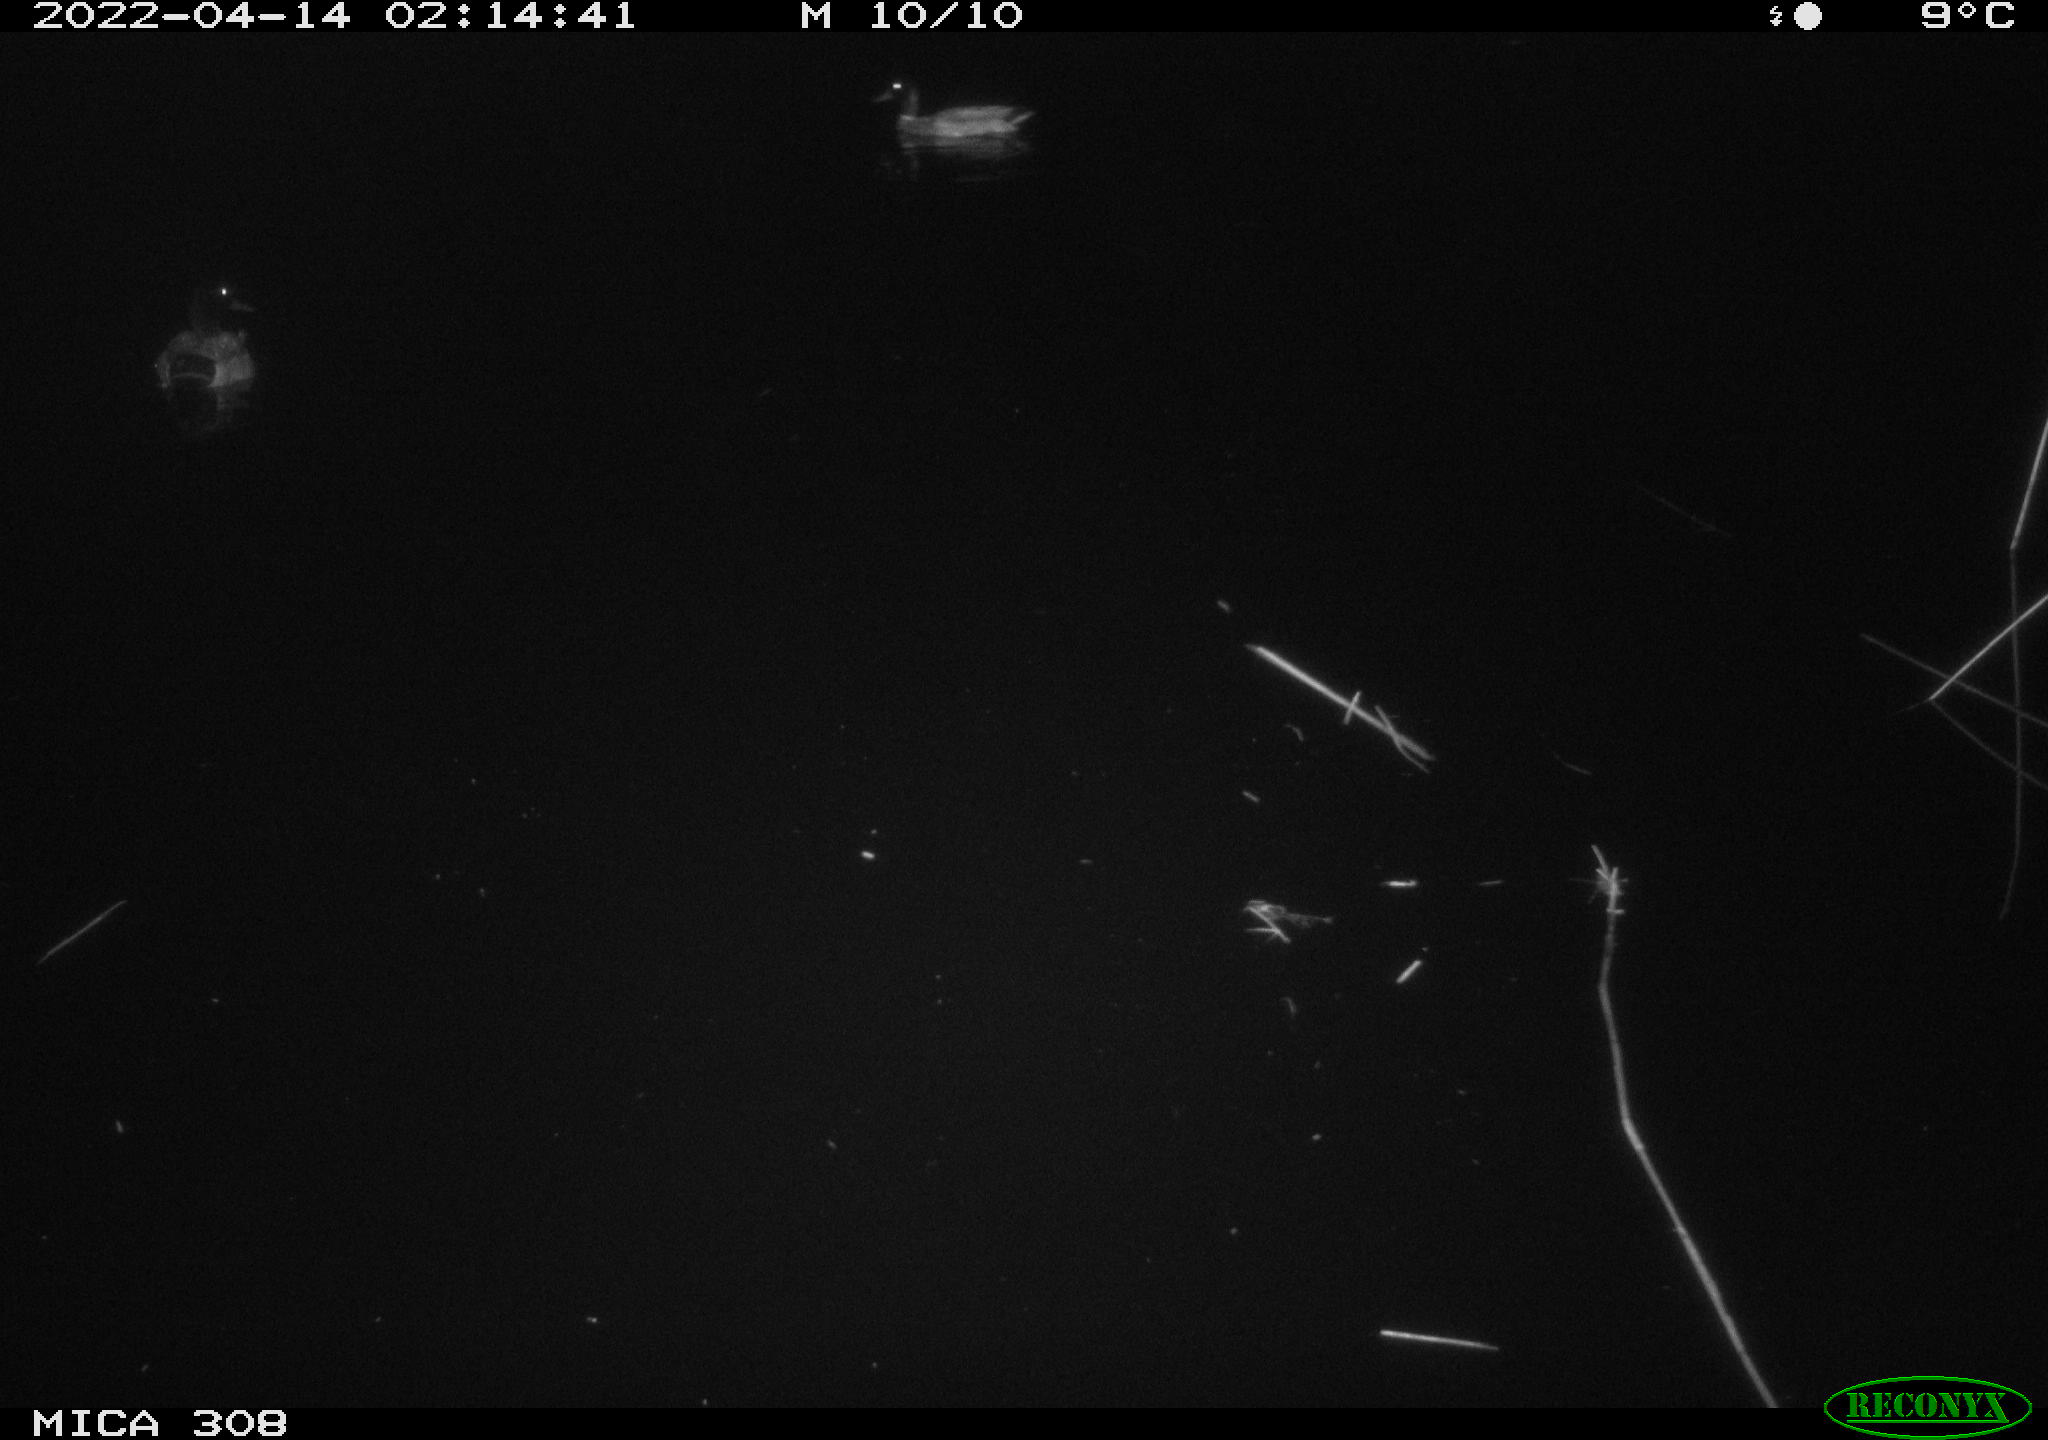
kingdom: Animalia
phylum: Chordata
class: Aves
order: Anseriformes
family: Anatidae
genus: Anas
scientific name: Anas platyrhynchos
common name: Mallard
